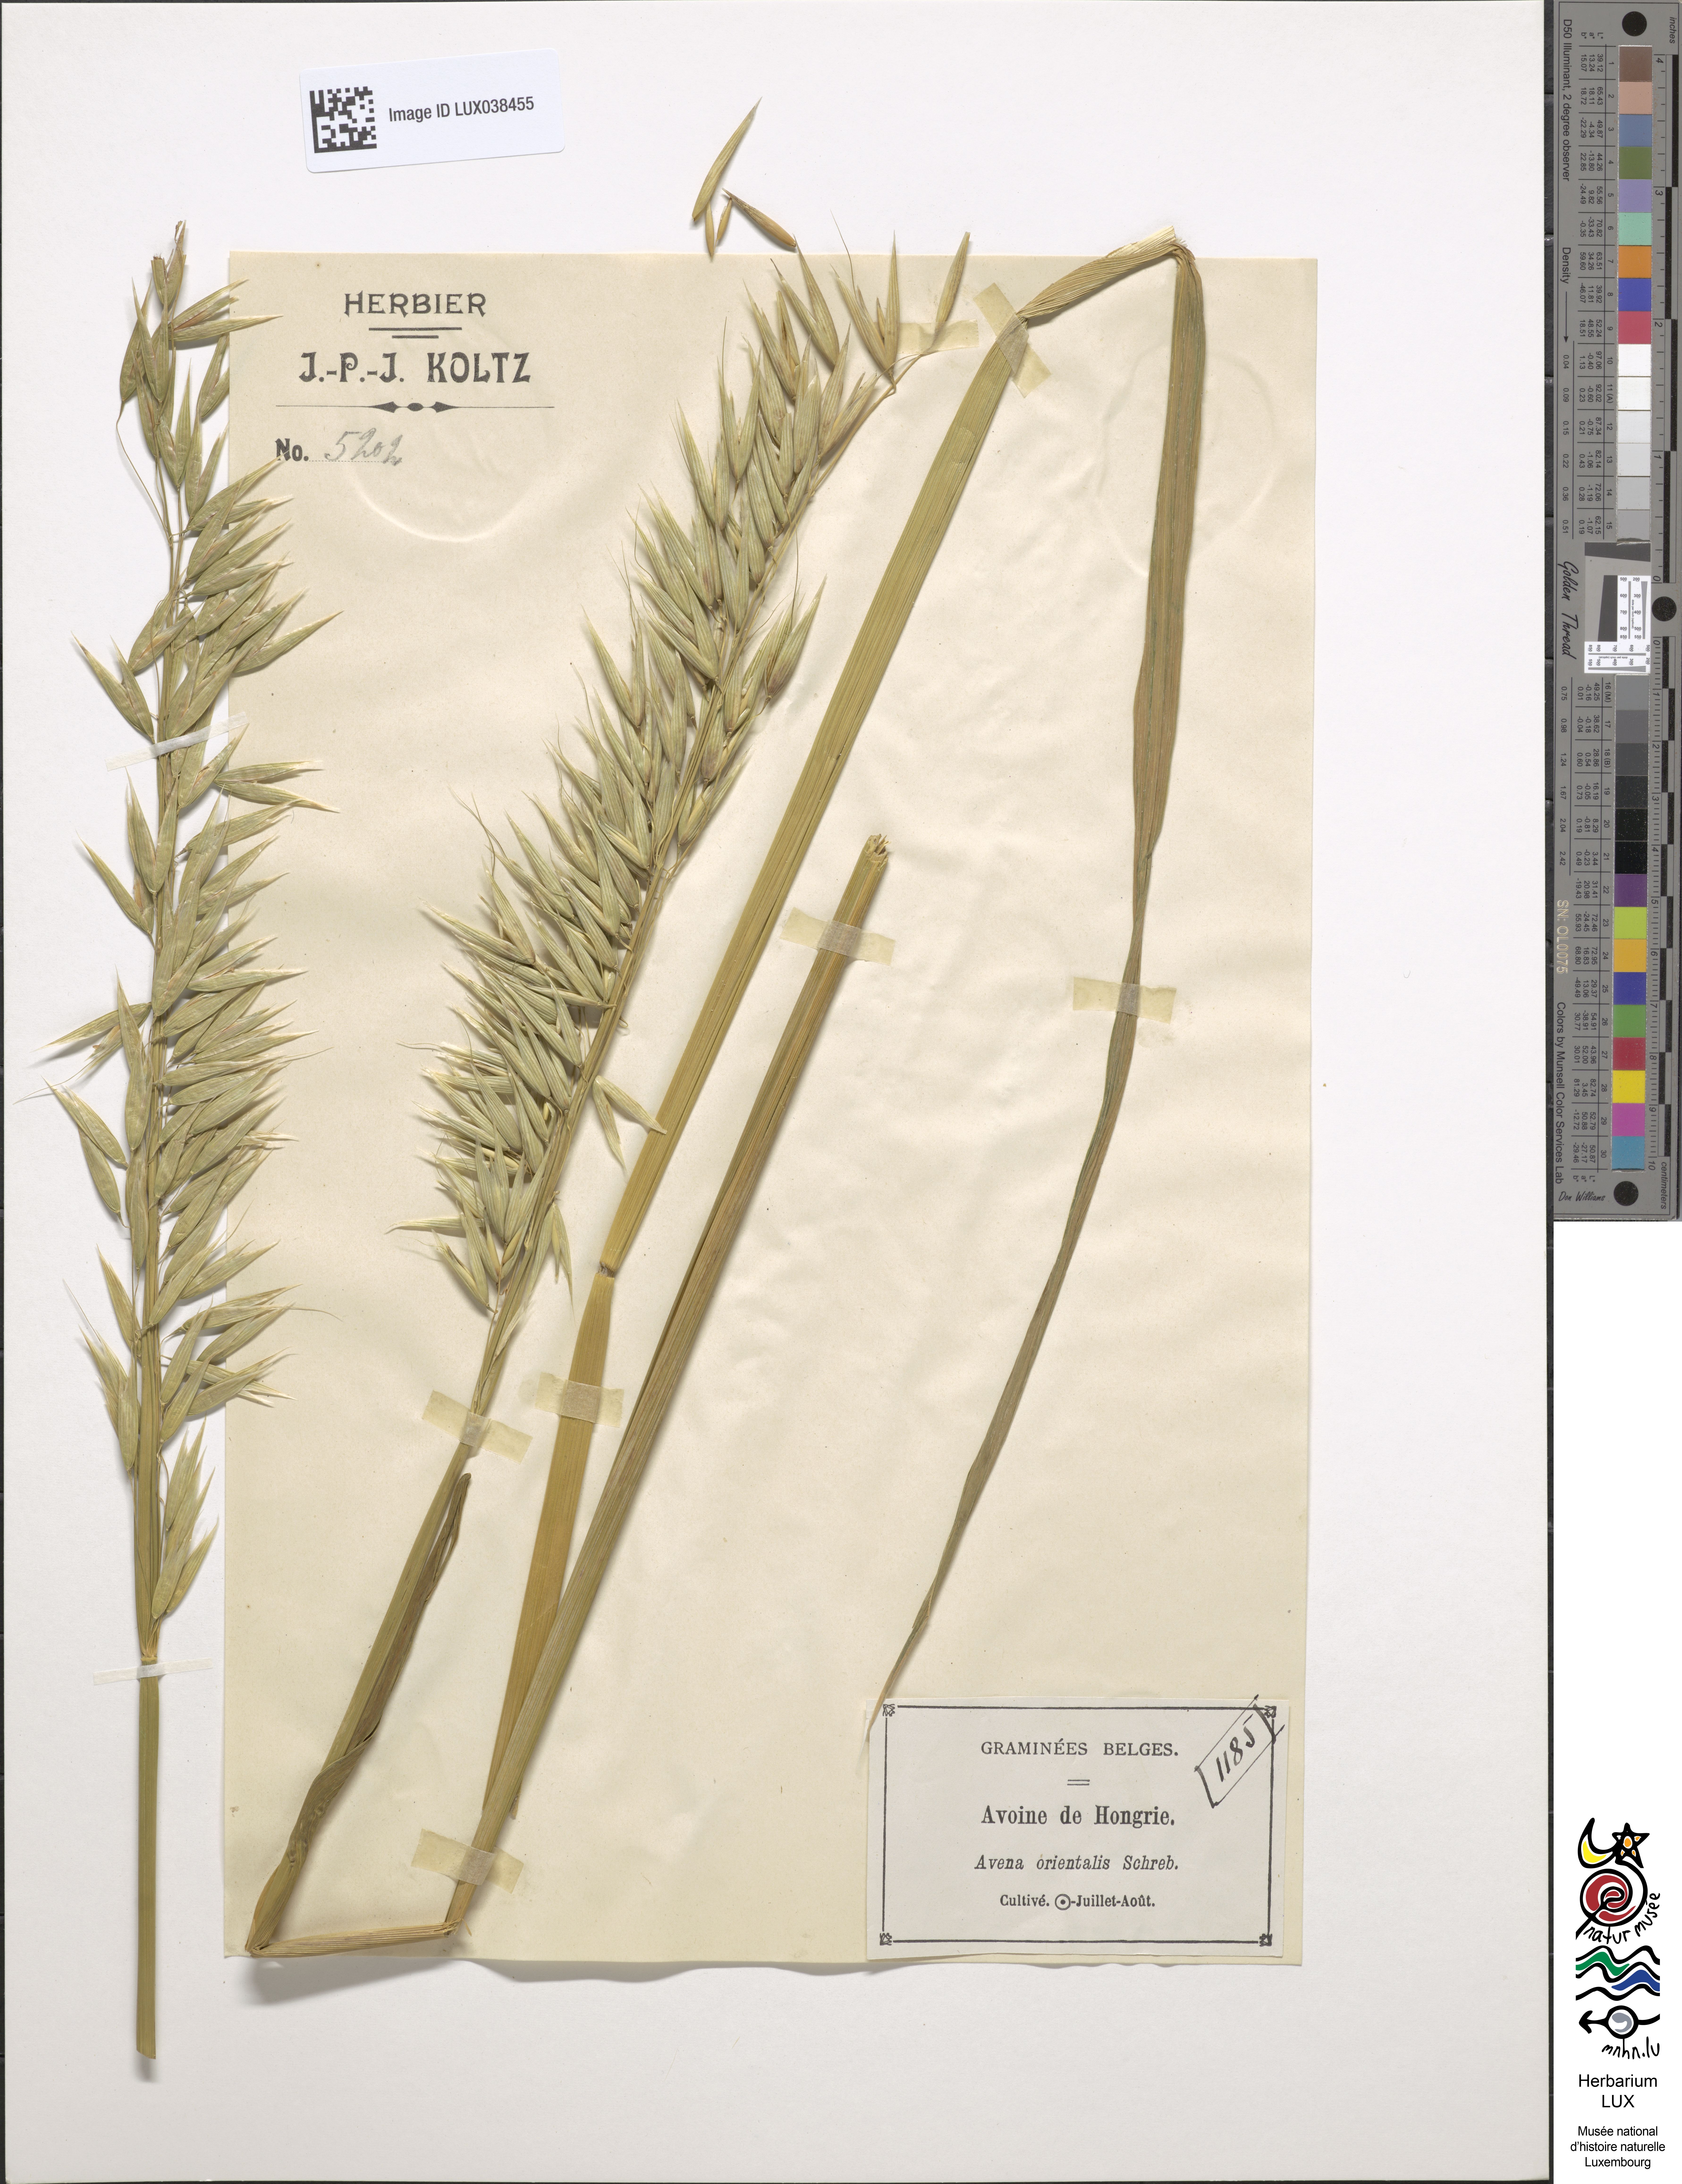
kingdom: Plantae
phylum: Tracheophyta
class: Liliopsida
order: Poales
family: Poaceae
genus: Avena
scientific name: Avena sativa
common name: Oat
